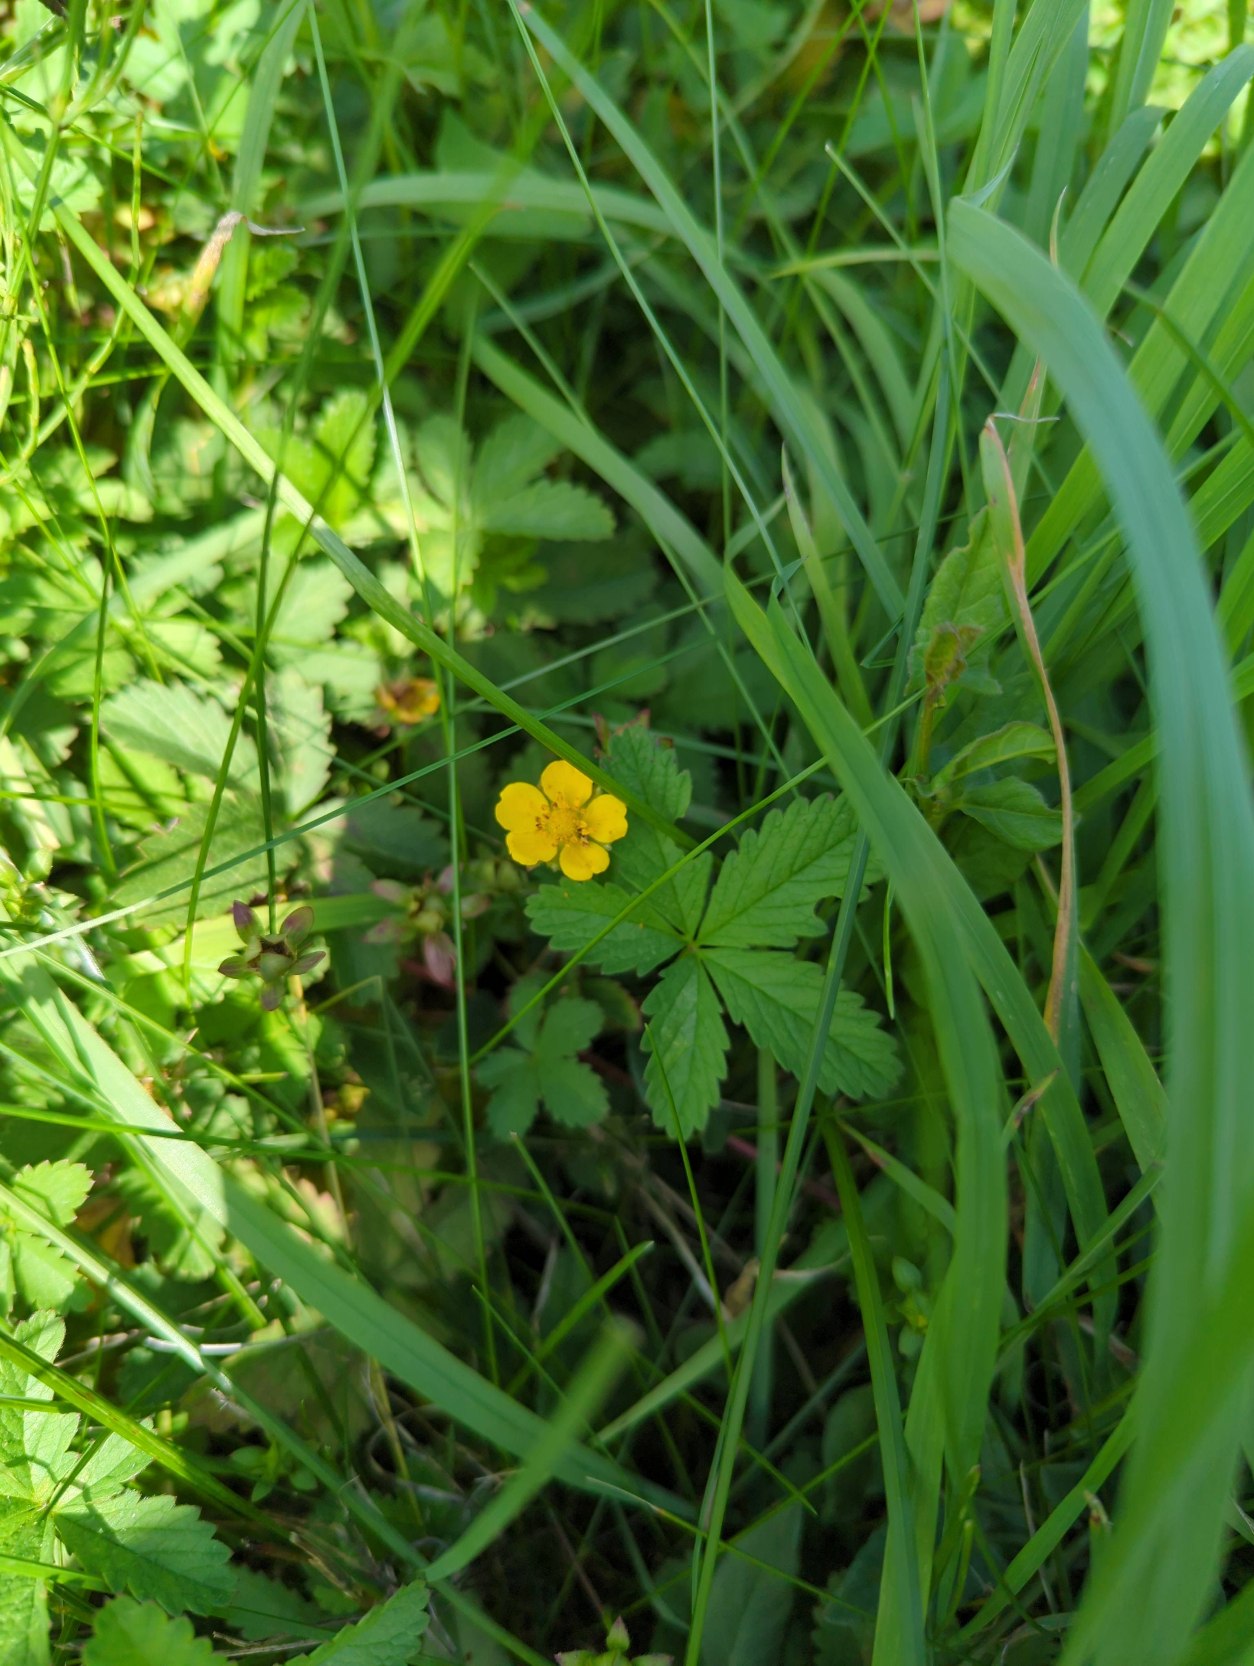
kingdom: Plantae
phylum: Tracheophyta
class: Magnoliopsida
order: Rosales
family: Rosaceae
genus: Potentilla
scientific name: Potentilla reptans
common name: Krybende potentil
